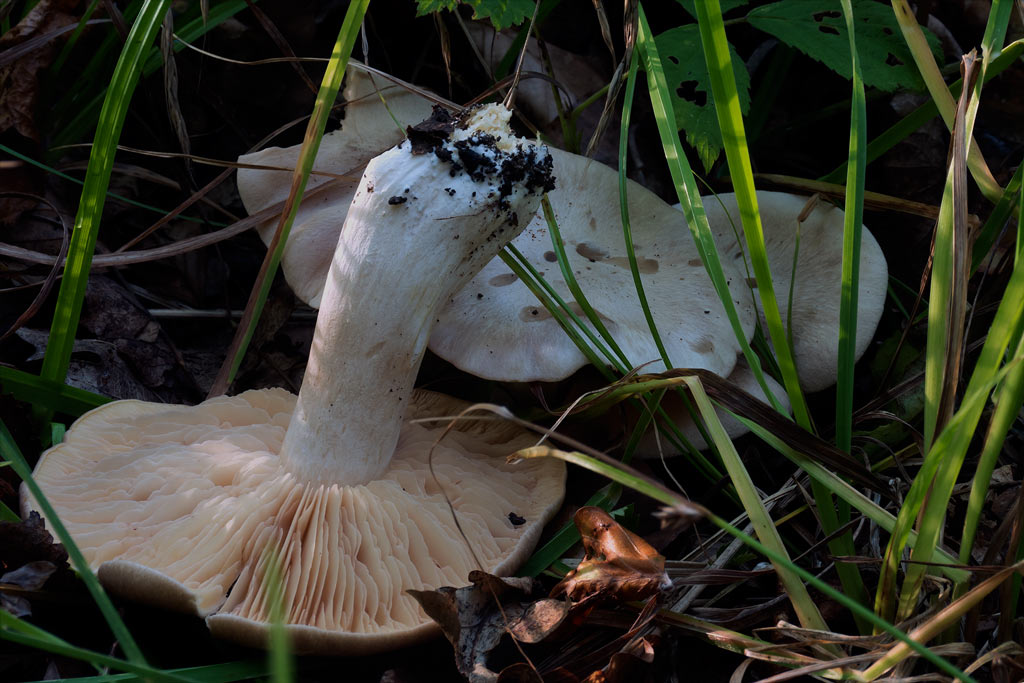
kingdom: Fungi
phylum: Basidiomycota
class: Agaricomycetes
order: Agaricales
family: Entolomataceae
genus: Entoloma
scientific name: Entoloma sinuatum
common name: giftig rødblad
